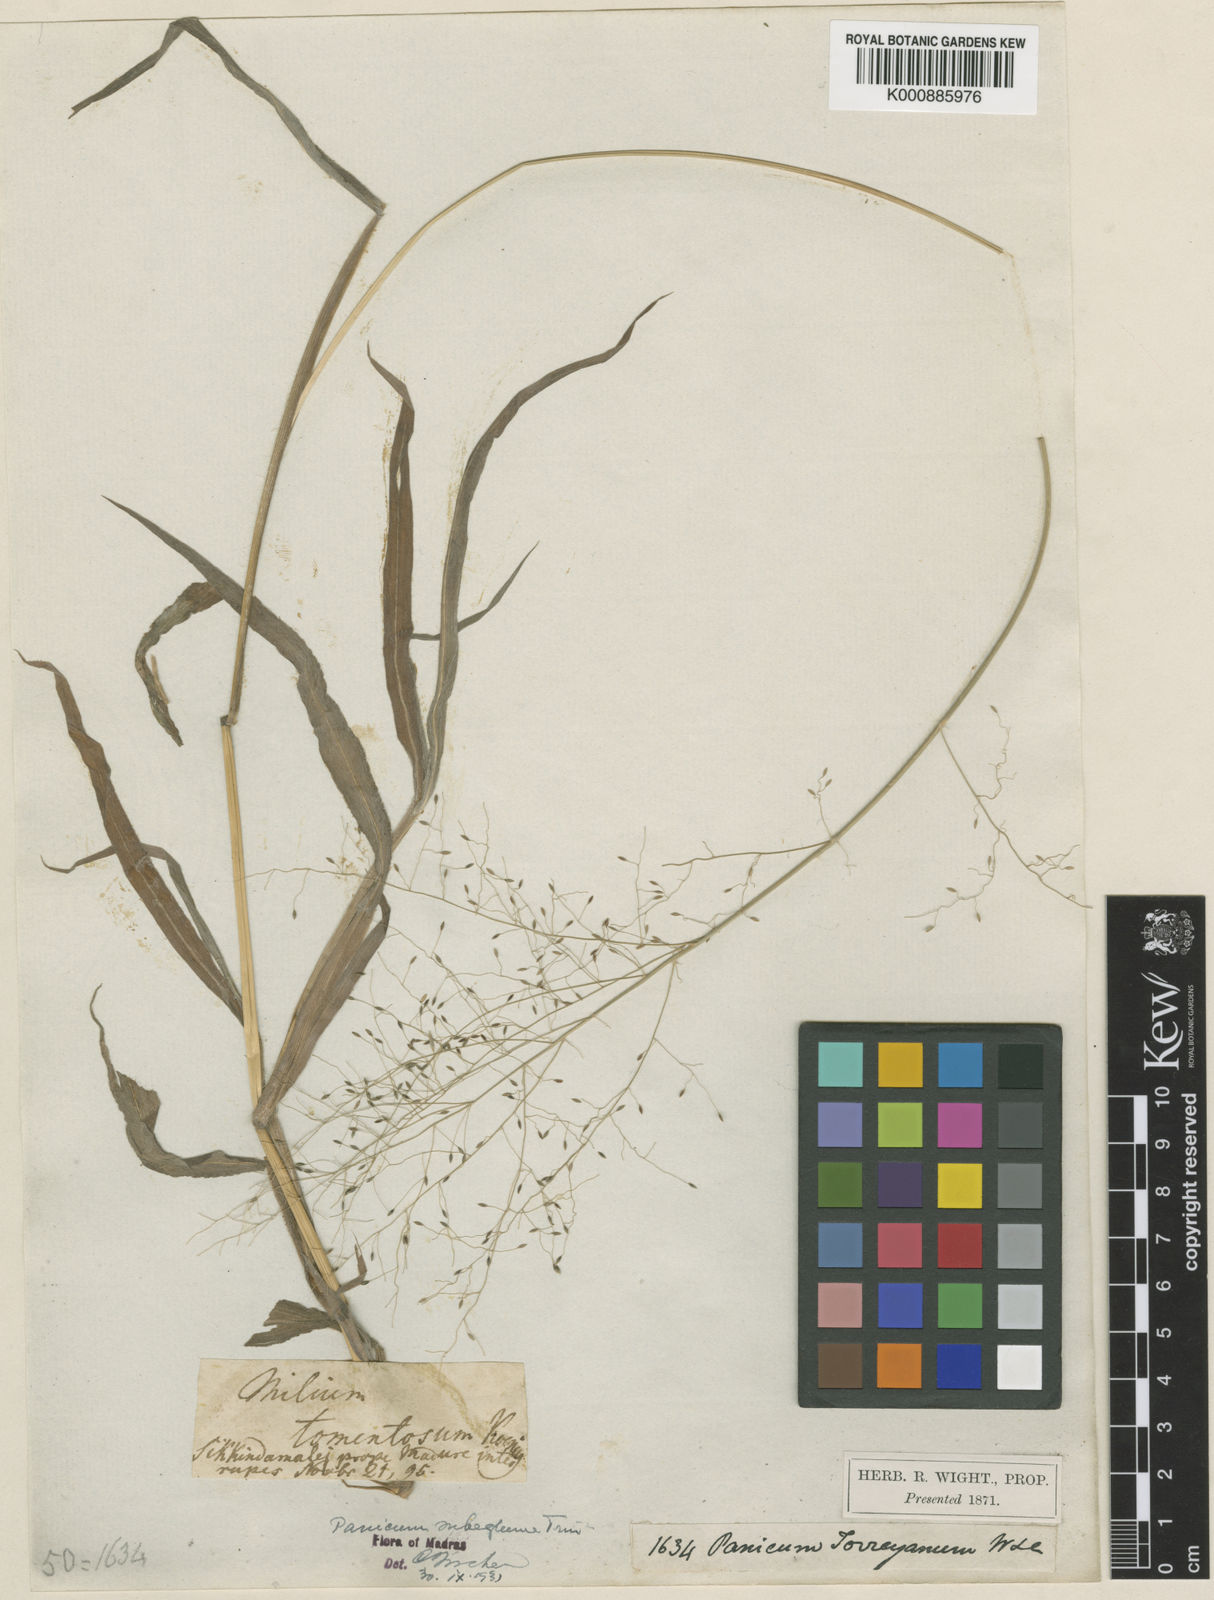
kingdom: Plantae
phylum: Tracheophyta
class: Liliopsida
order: Poales
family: Poaceae
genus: Digitaria
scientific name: Digitaria tomentosa
